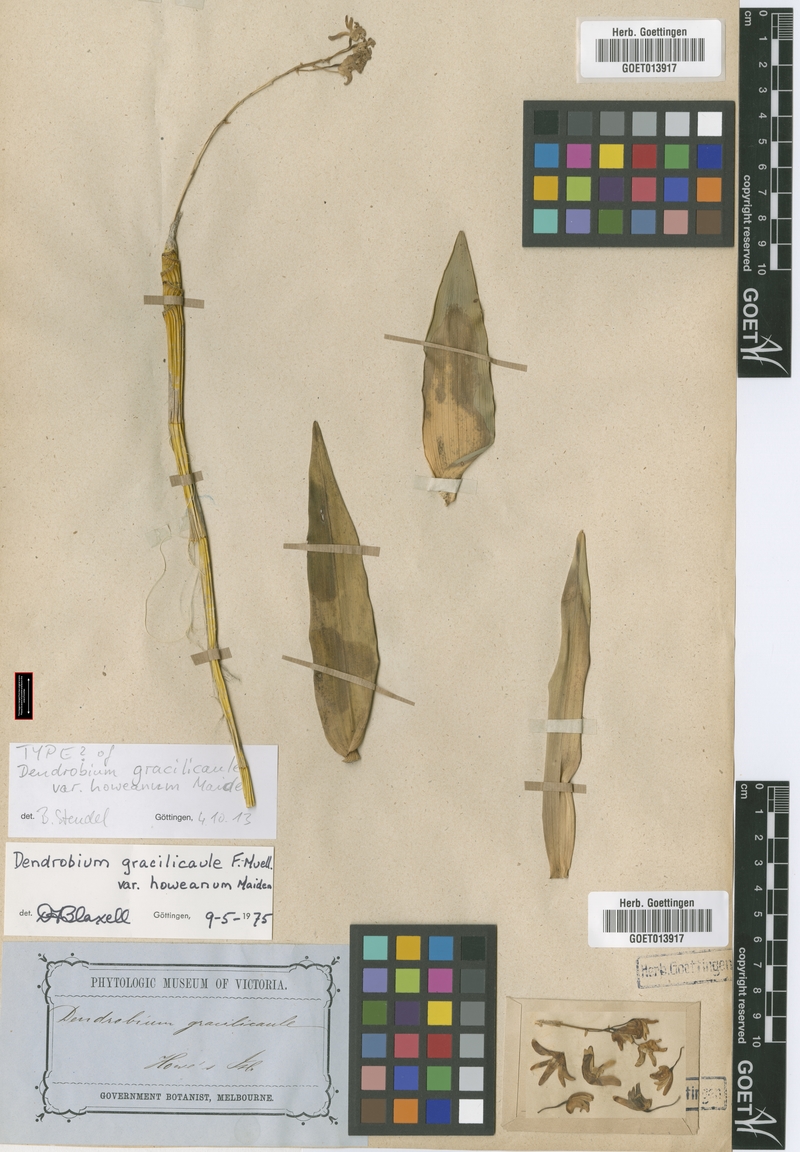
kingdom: Plantae
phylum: Tracheophyta
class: Liliopsida
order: Asparagales
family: Orchidaceae
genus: Dendrobium
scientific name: Dendrobium gracilicaule
